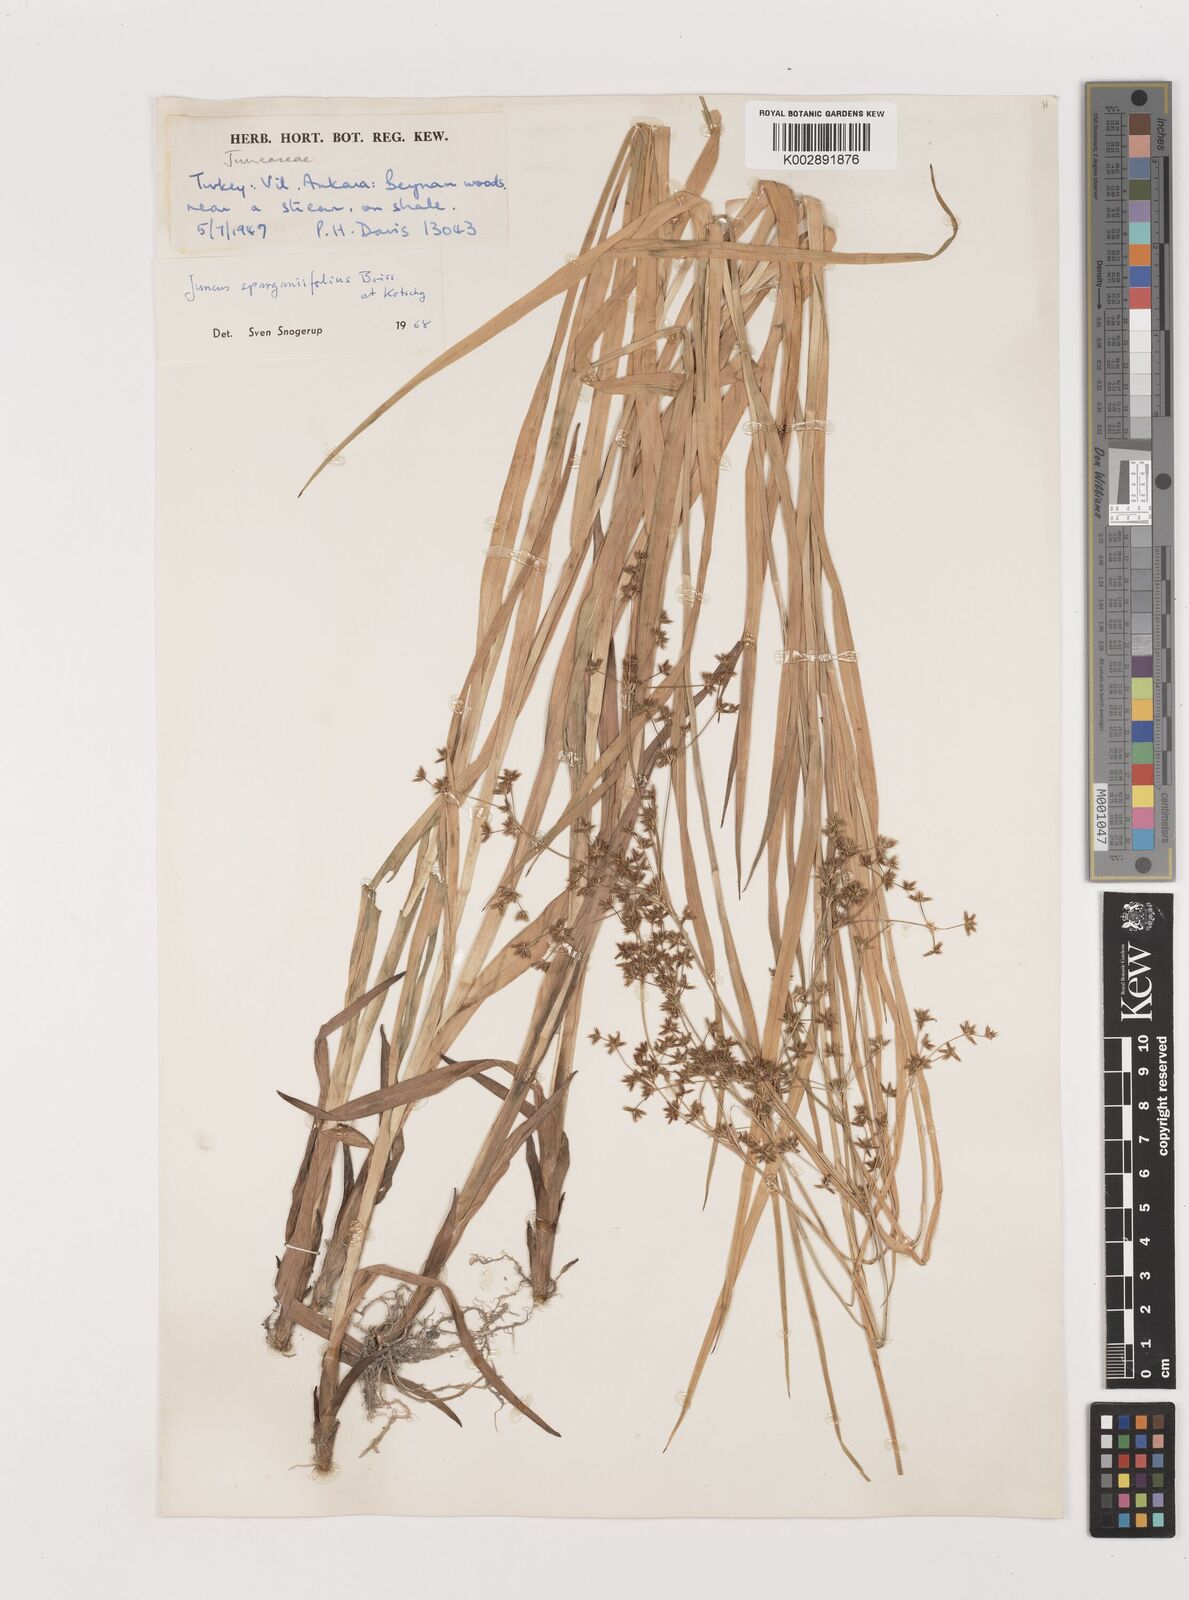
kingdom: Plantae
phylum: Tracheophyta
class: Liliopsida
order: Poales
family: Juncaceae
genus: Juncus
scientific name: Juncus sparganiifolius
